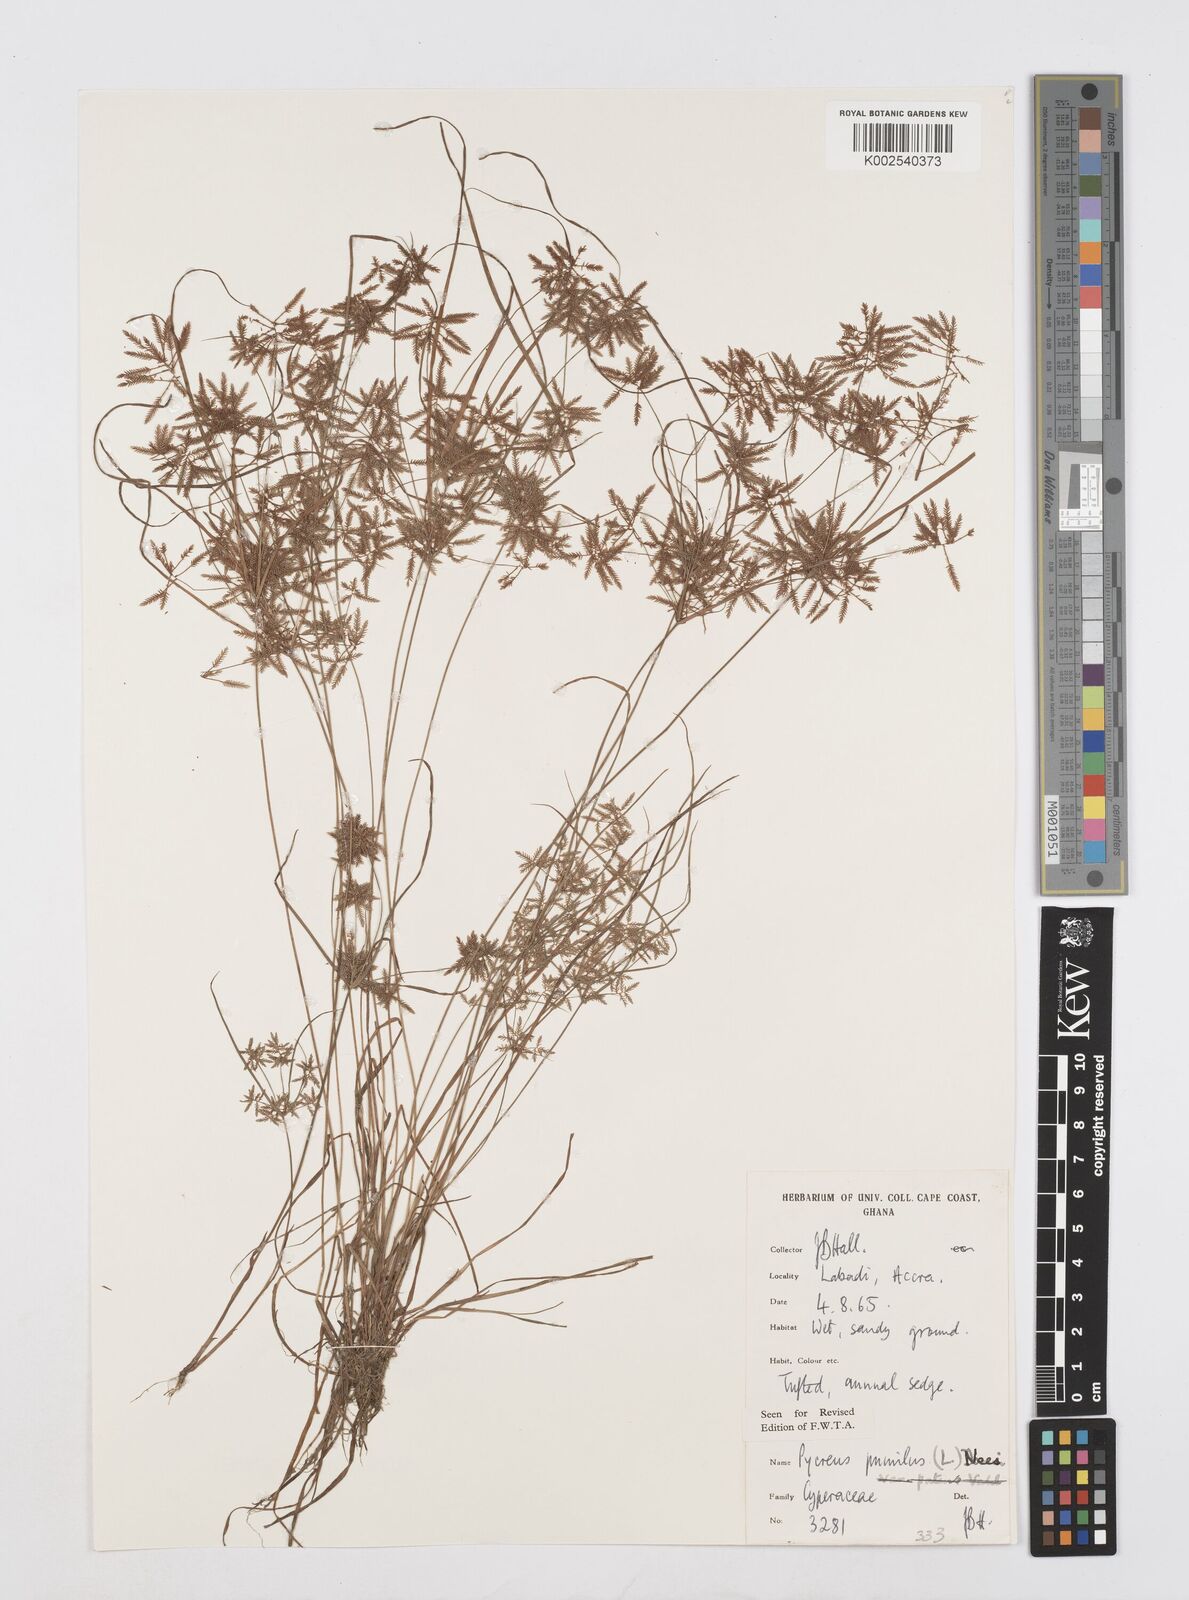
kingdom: Plantae
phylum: Tracheophyta
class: Liliopsida
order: Poales
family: Cyperaceae
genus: Cyperus
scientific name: Cyperus pumilus
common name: Low flatsedge
